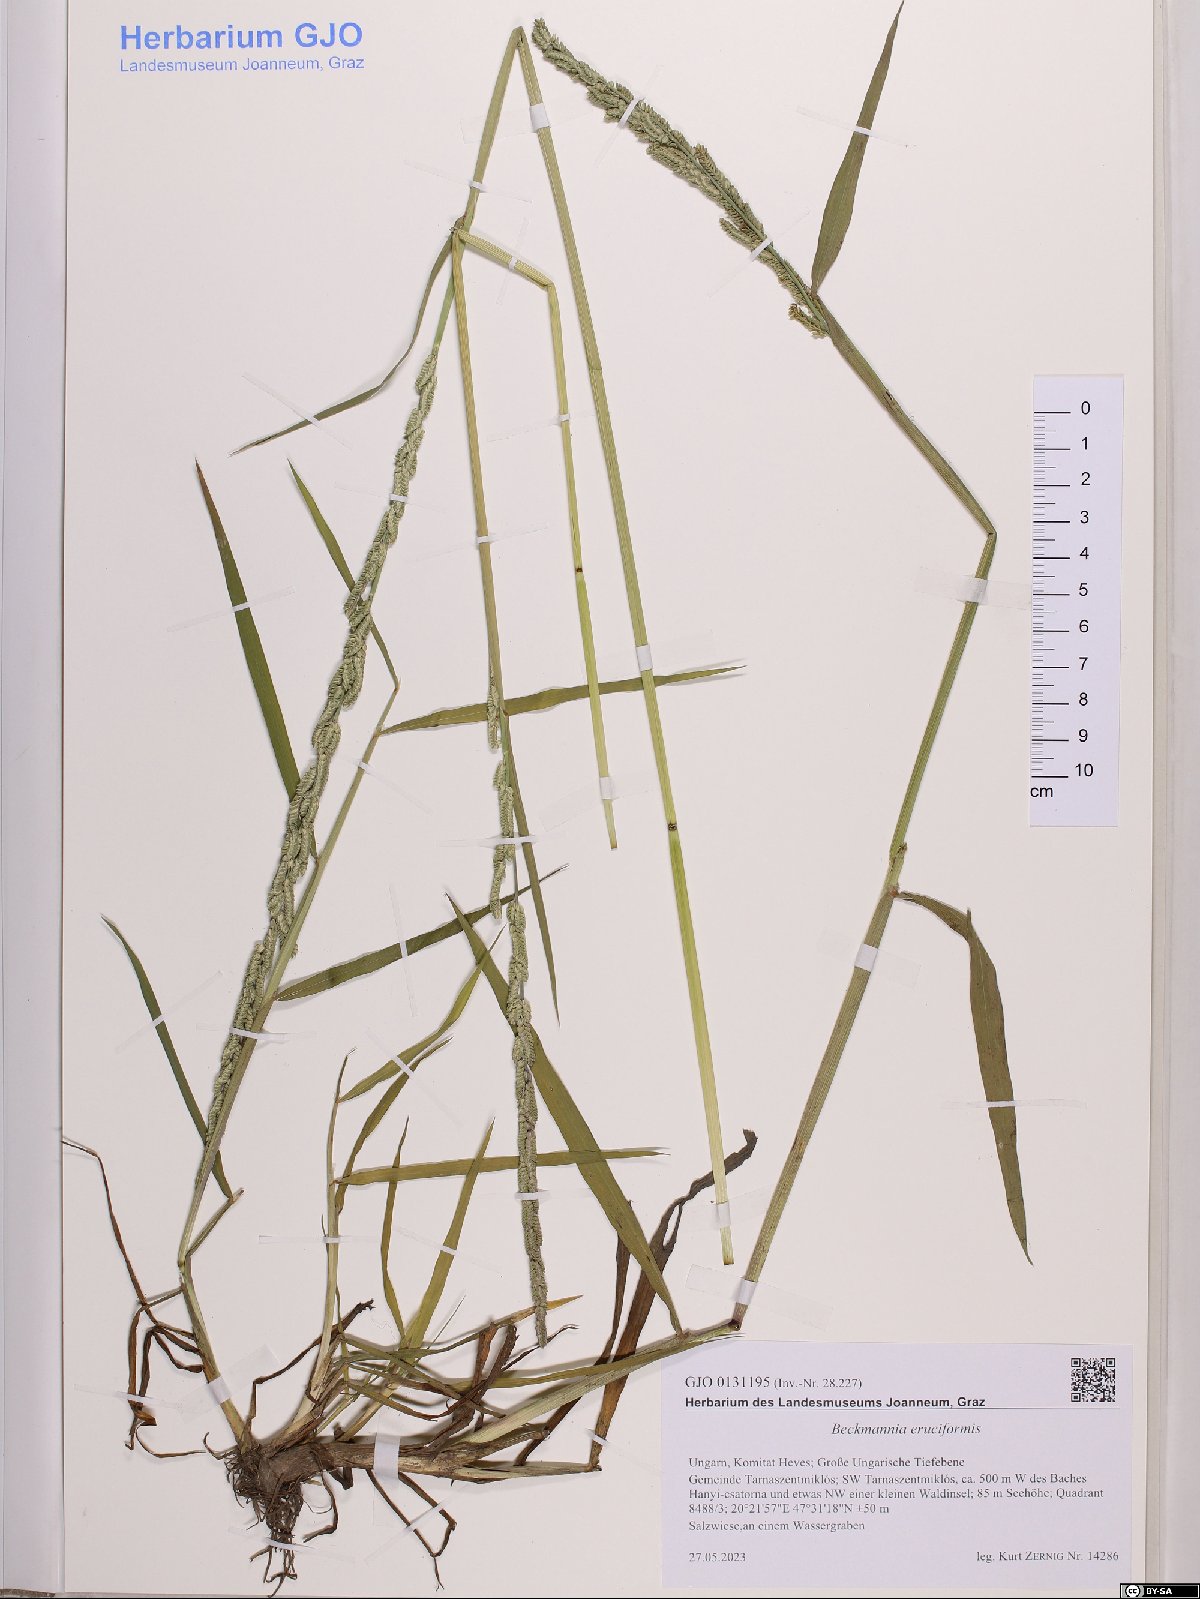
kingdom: Plantae
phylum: Tracheophyta
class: Liliopsida
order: Poales
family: Poaceae
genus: Beckmannia
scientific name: Beckmannia eruciformis
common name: European slough-grass
